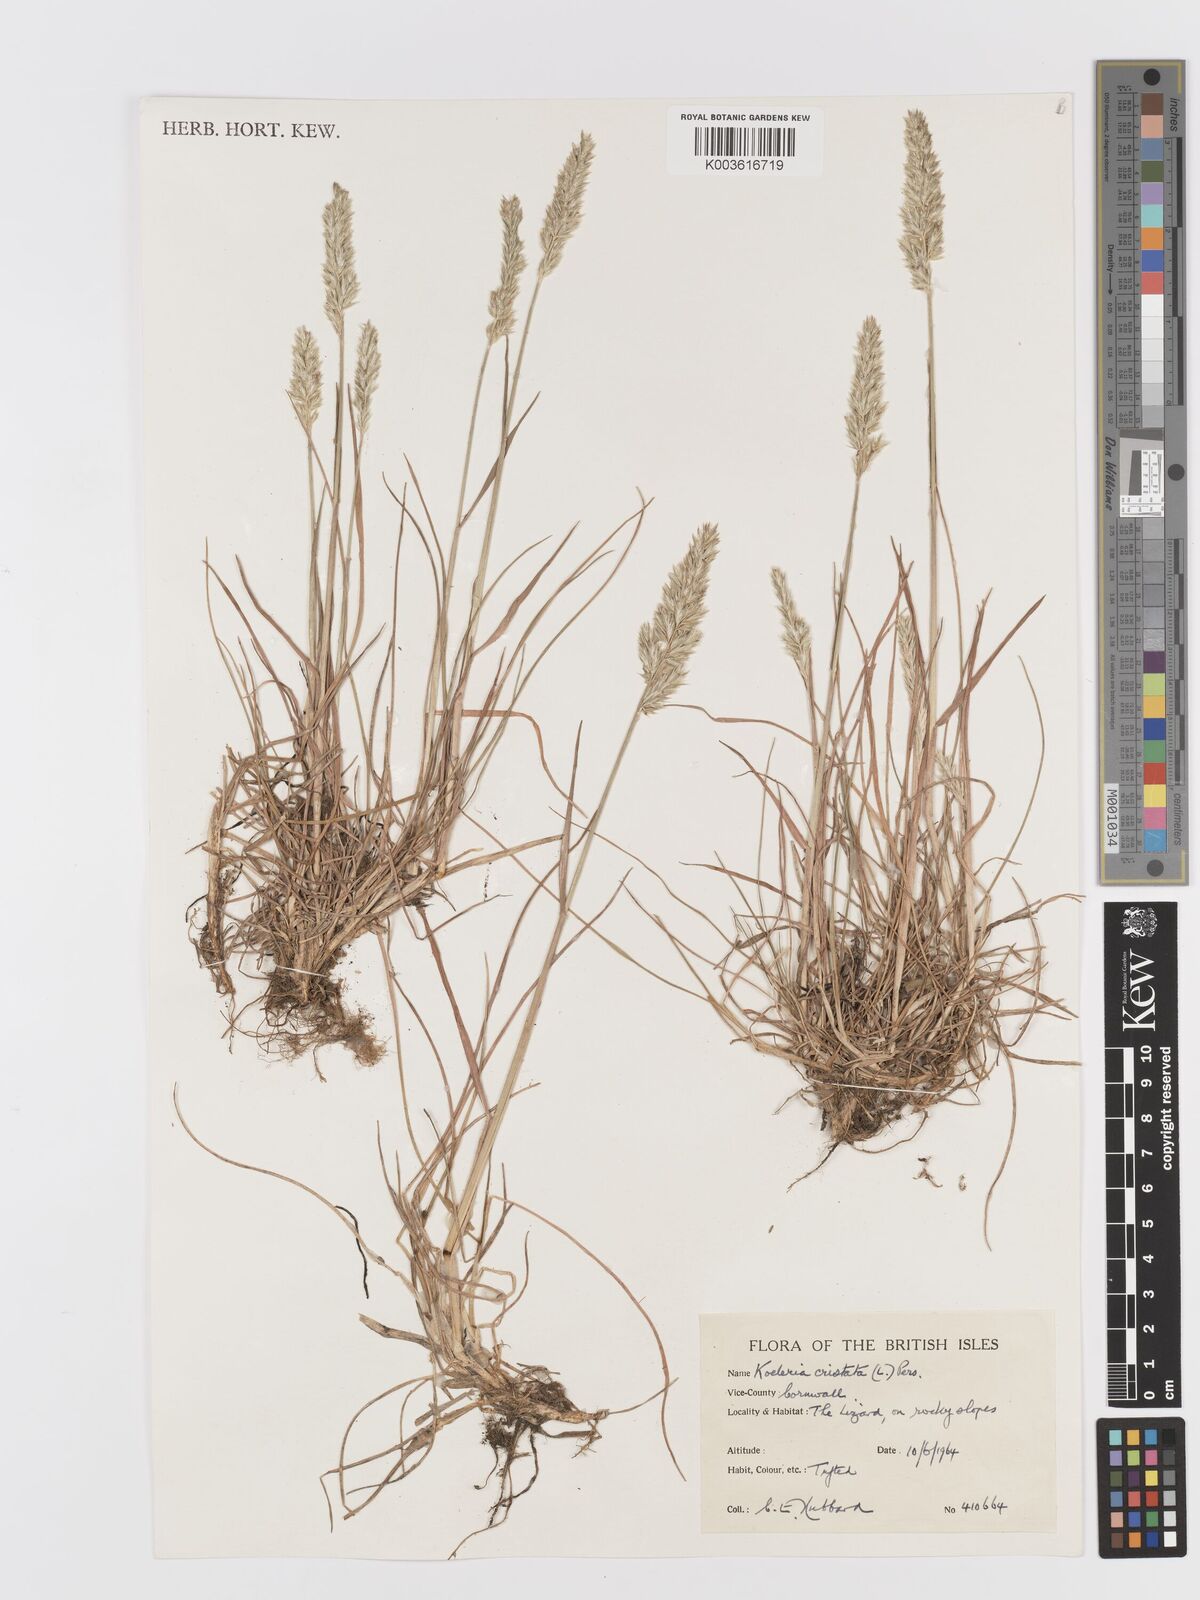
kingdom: Plantae
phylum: Tracheophyta
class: Liliopsida
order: Poales
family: Poaceae
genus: Koeleria
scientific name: Koeleria
